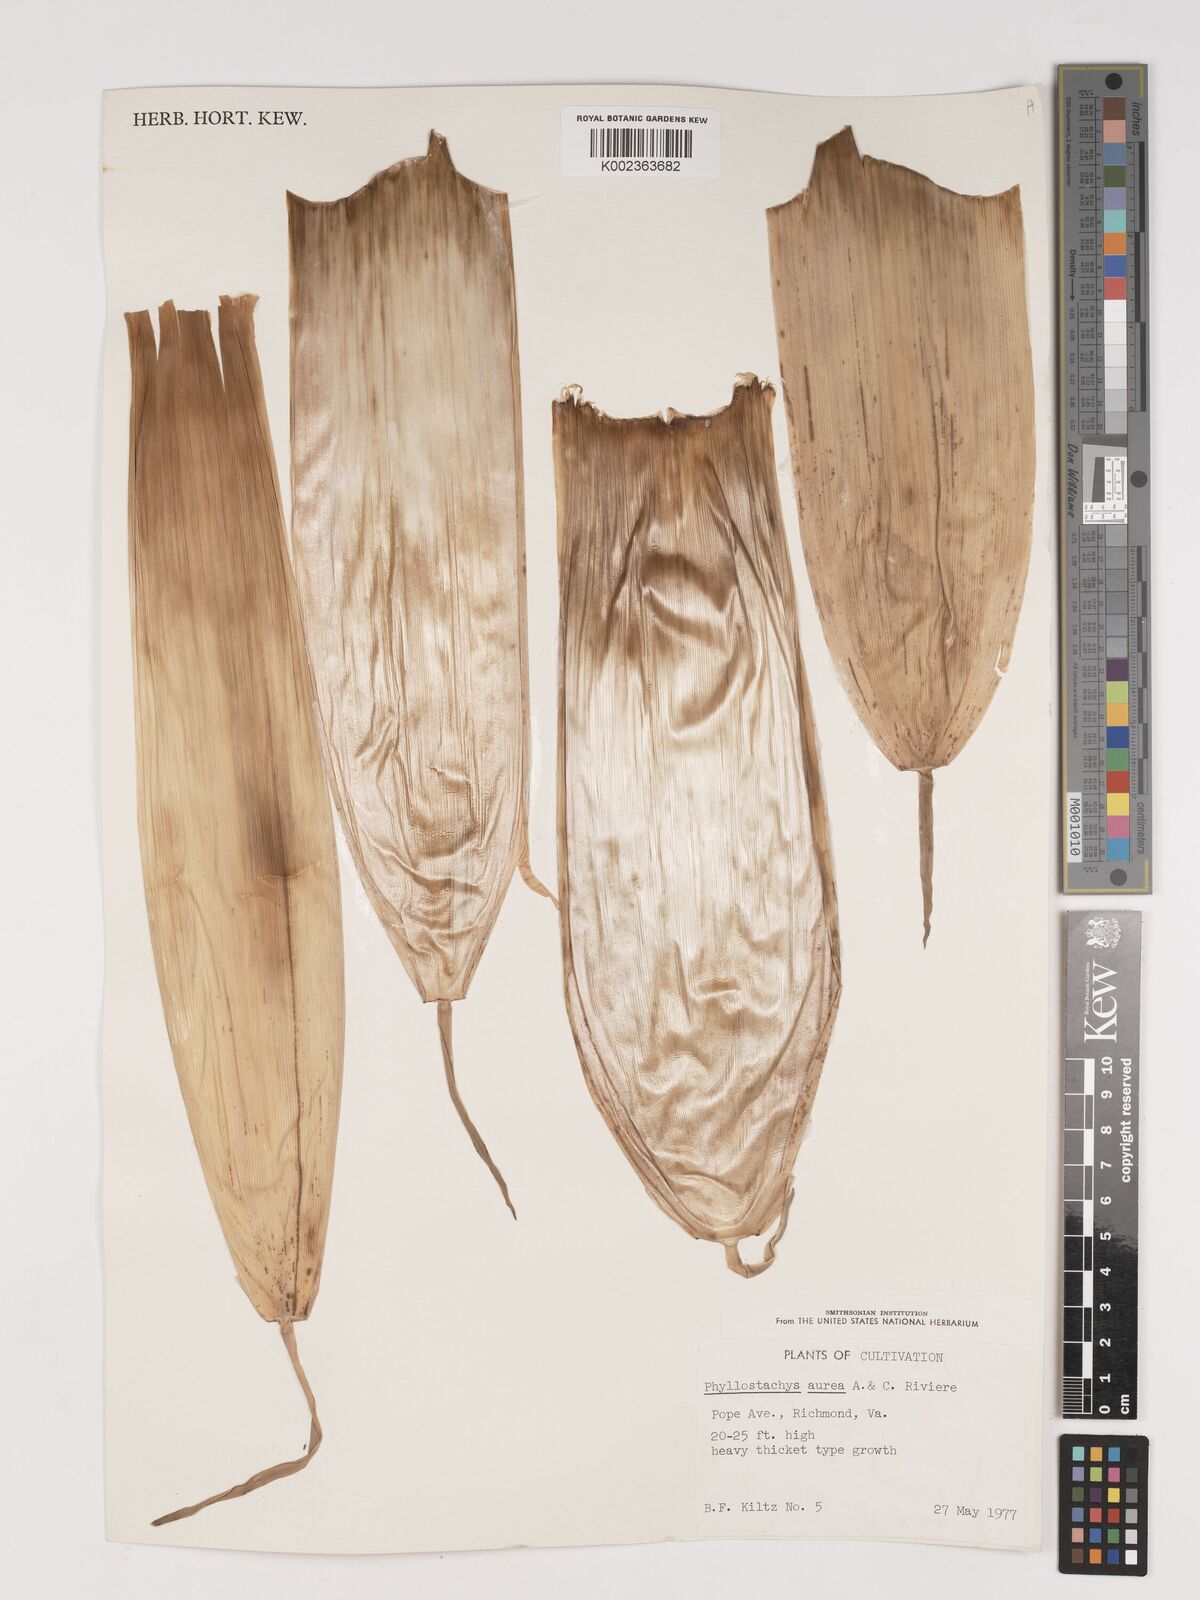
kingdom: Plantae
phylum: Tracheophyta
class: Liliopsida
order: Poales
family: Poaceae
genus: Phyllostachys
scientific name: Phyllostachys aurea
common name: Golden bamboo
